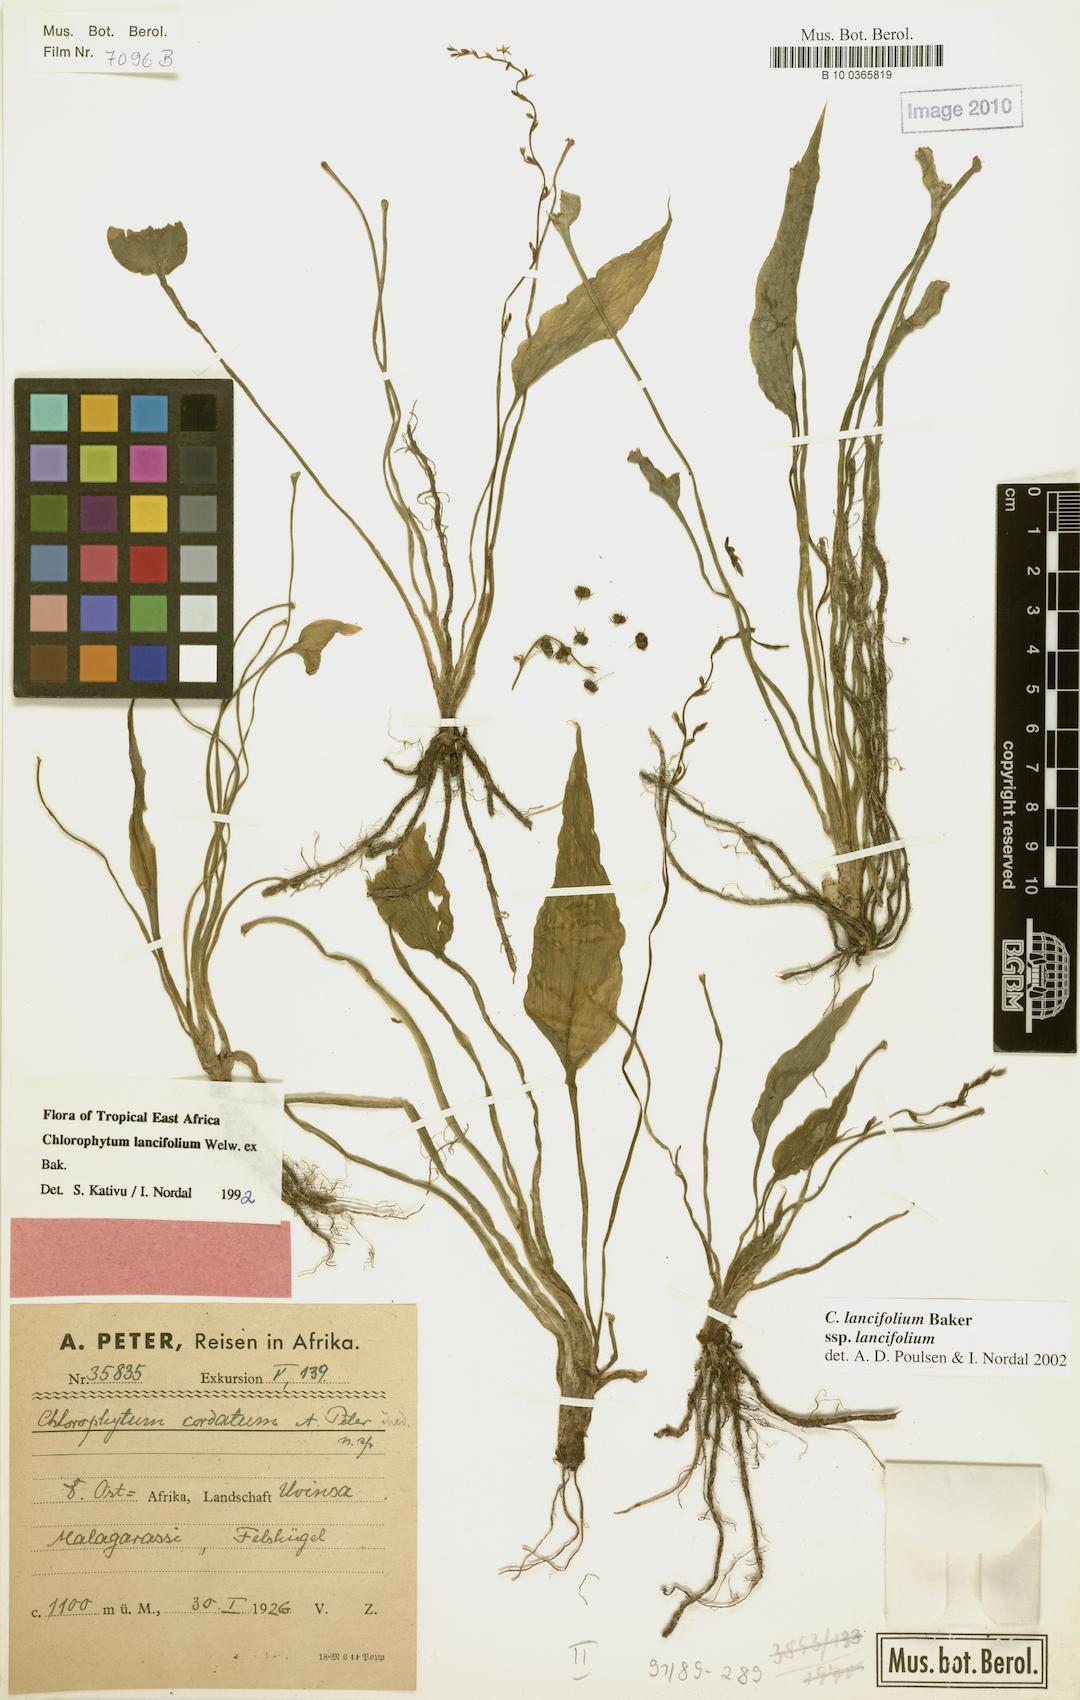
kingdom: Plantae
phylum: Tracheophyta
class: Liliopsida
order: Asparagales
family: Asparagaceae
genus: Chlorophytum
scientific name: Chlorophytum lancifolium
